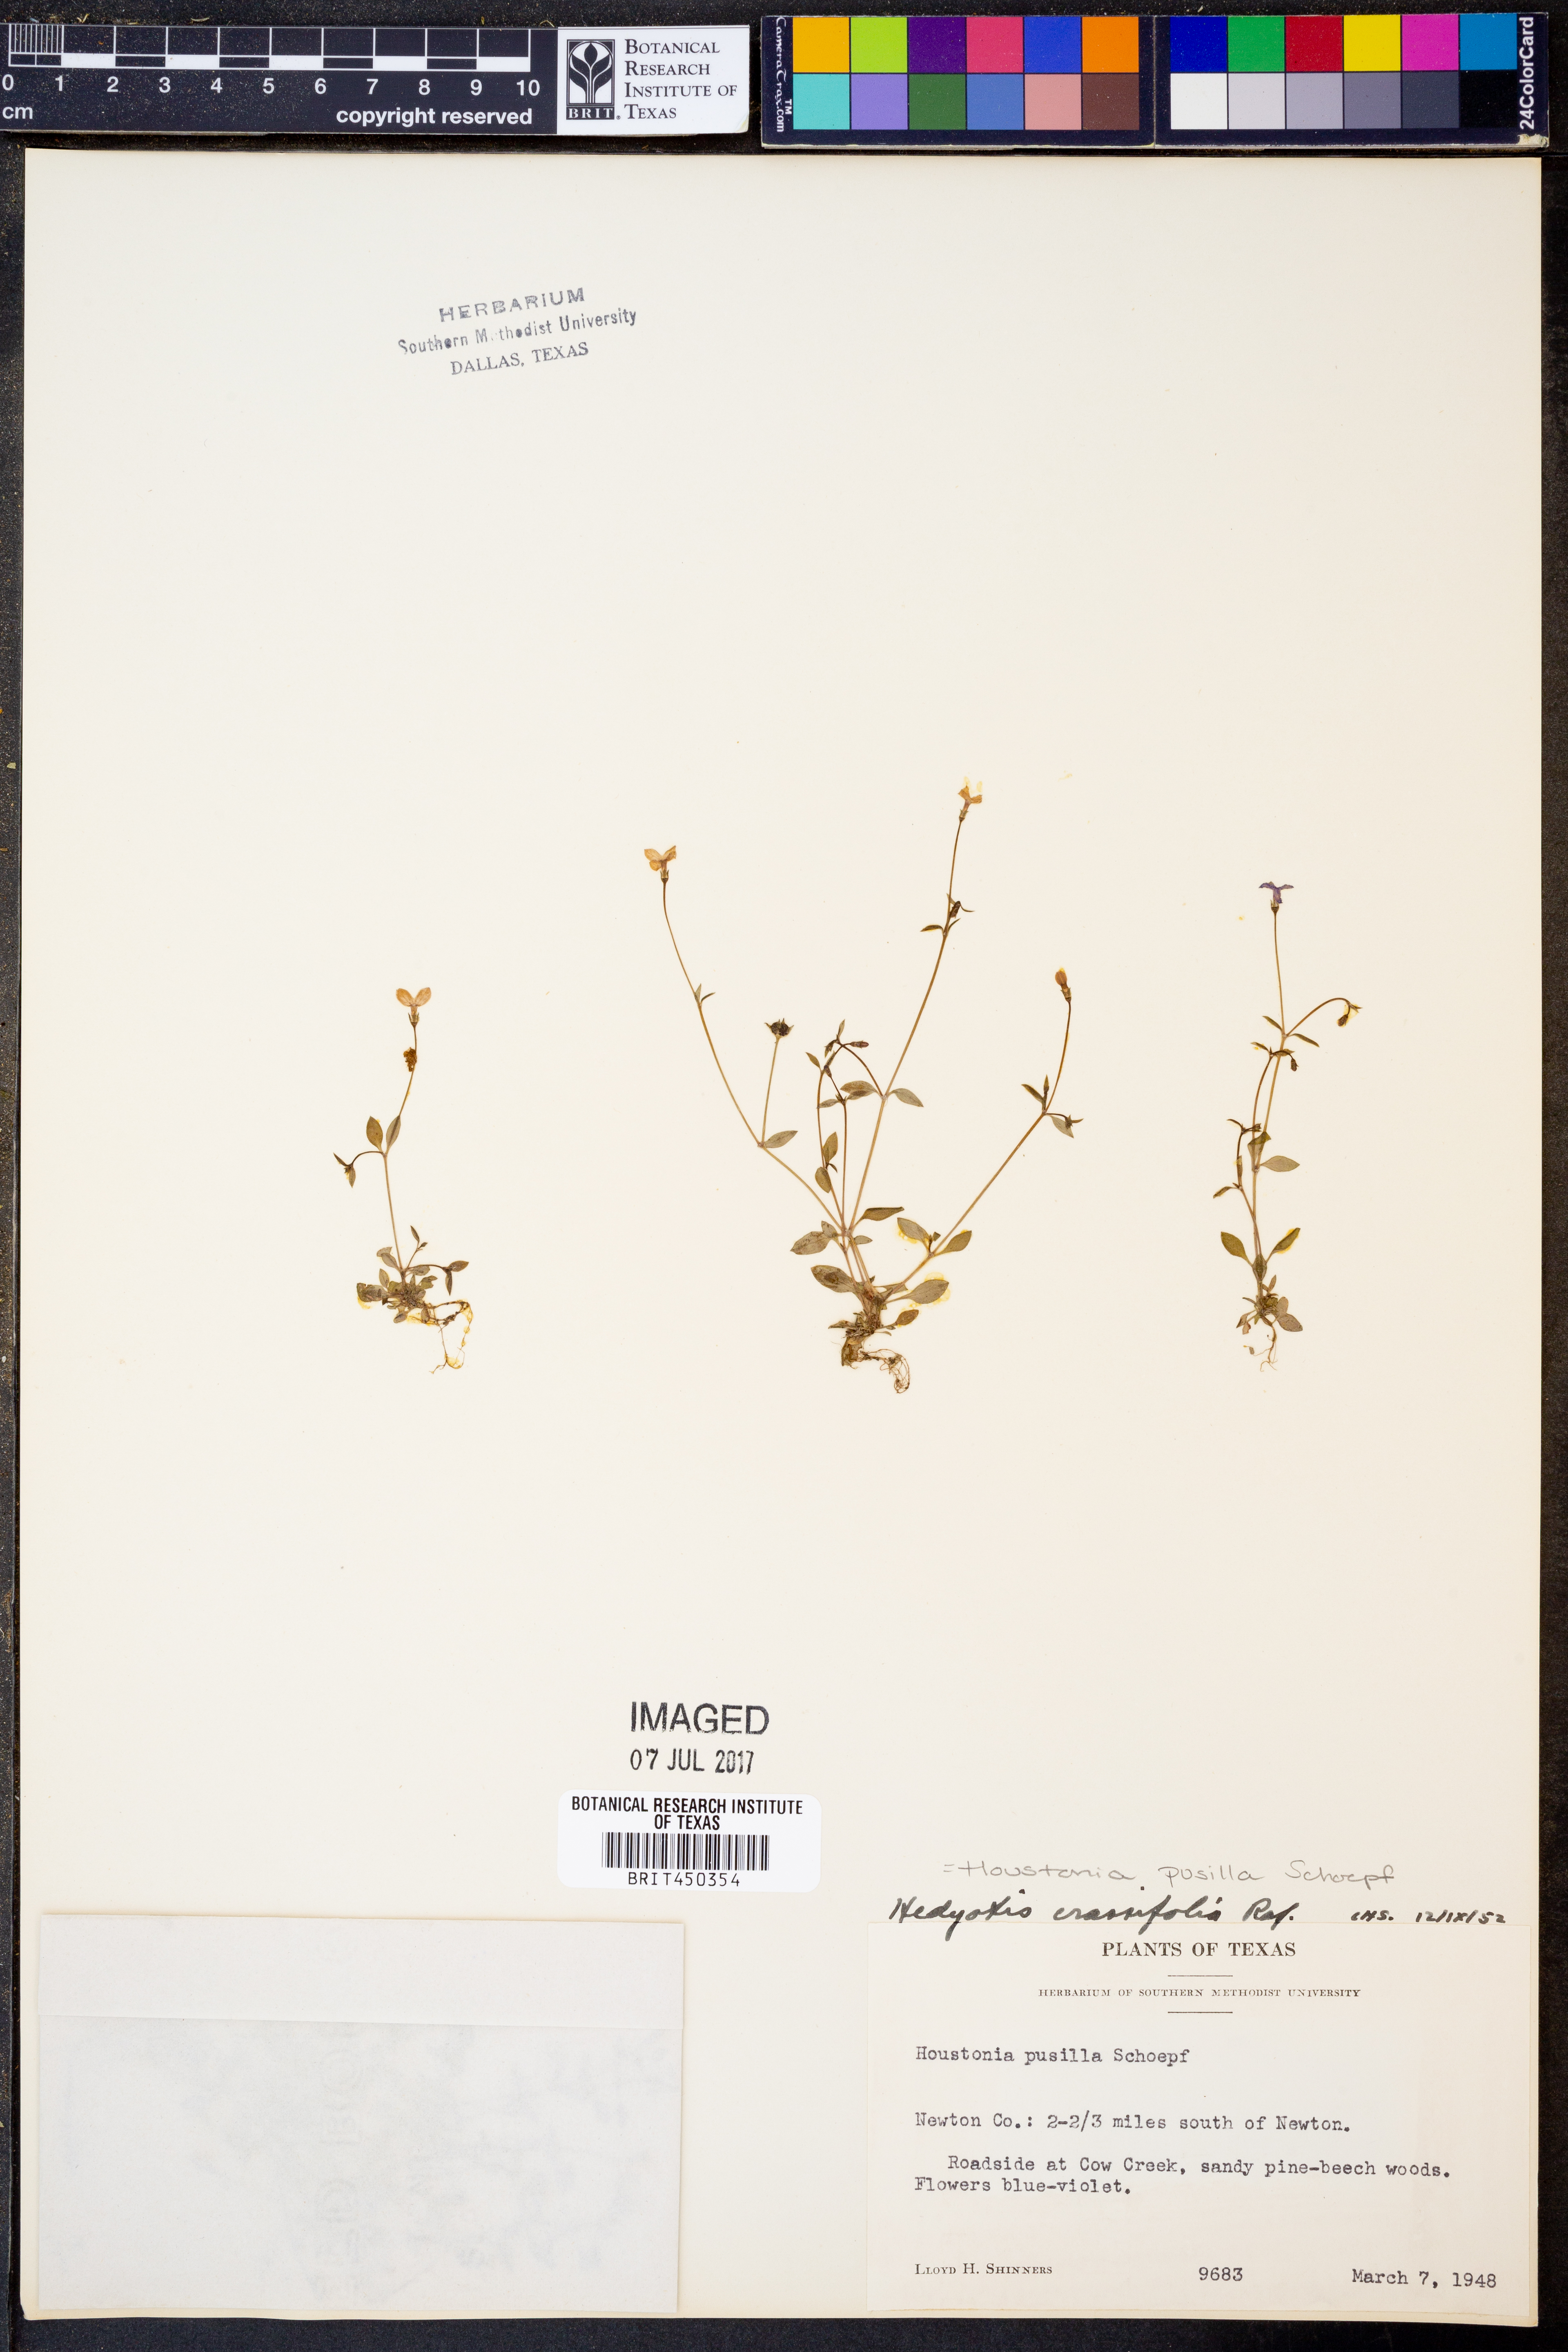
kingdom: Plantae
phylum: Tracheophyta
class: Magnoliopsida
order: Gentianales
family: Rubiaceae
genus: Houstonia
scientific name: Houstonia pusilla
